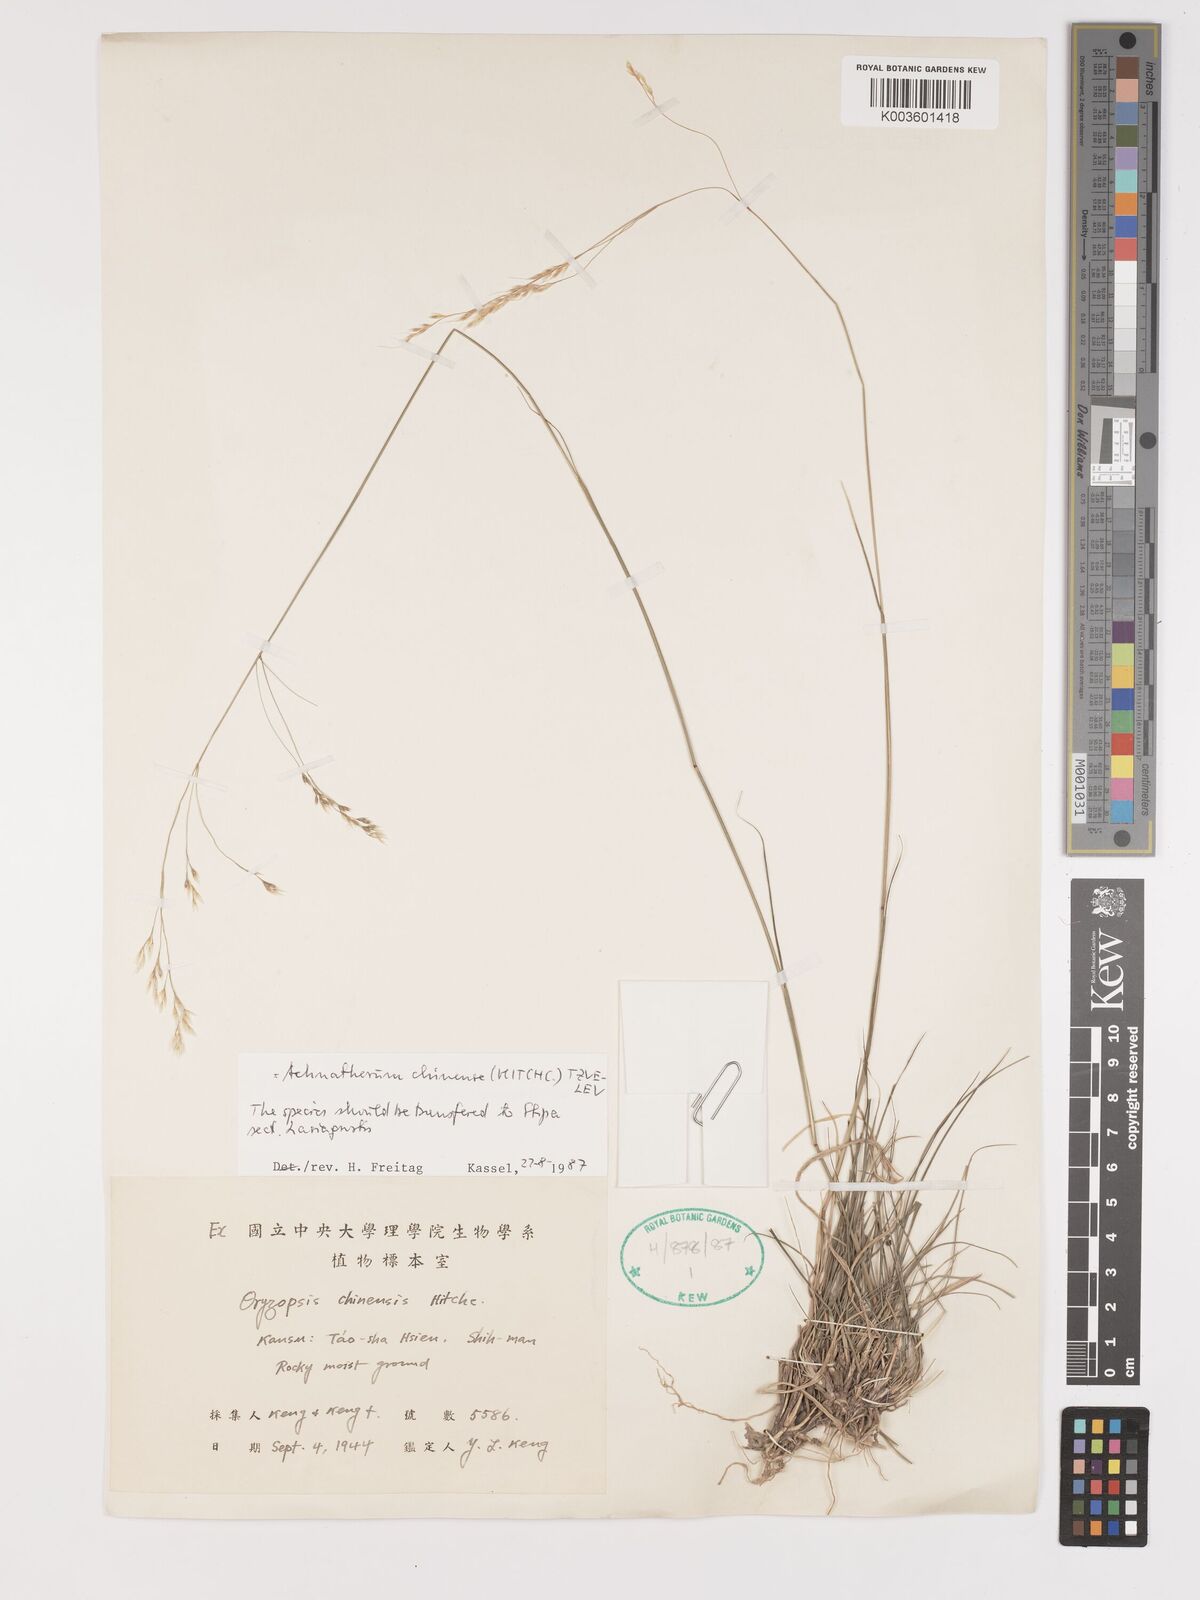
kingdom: Plantae
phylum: Tracheophyta
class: Liliopsida
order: Poales
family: Poaceae
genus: Stipa
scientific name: Stipa
